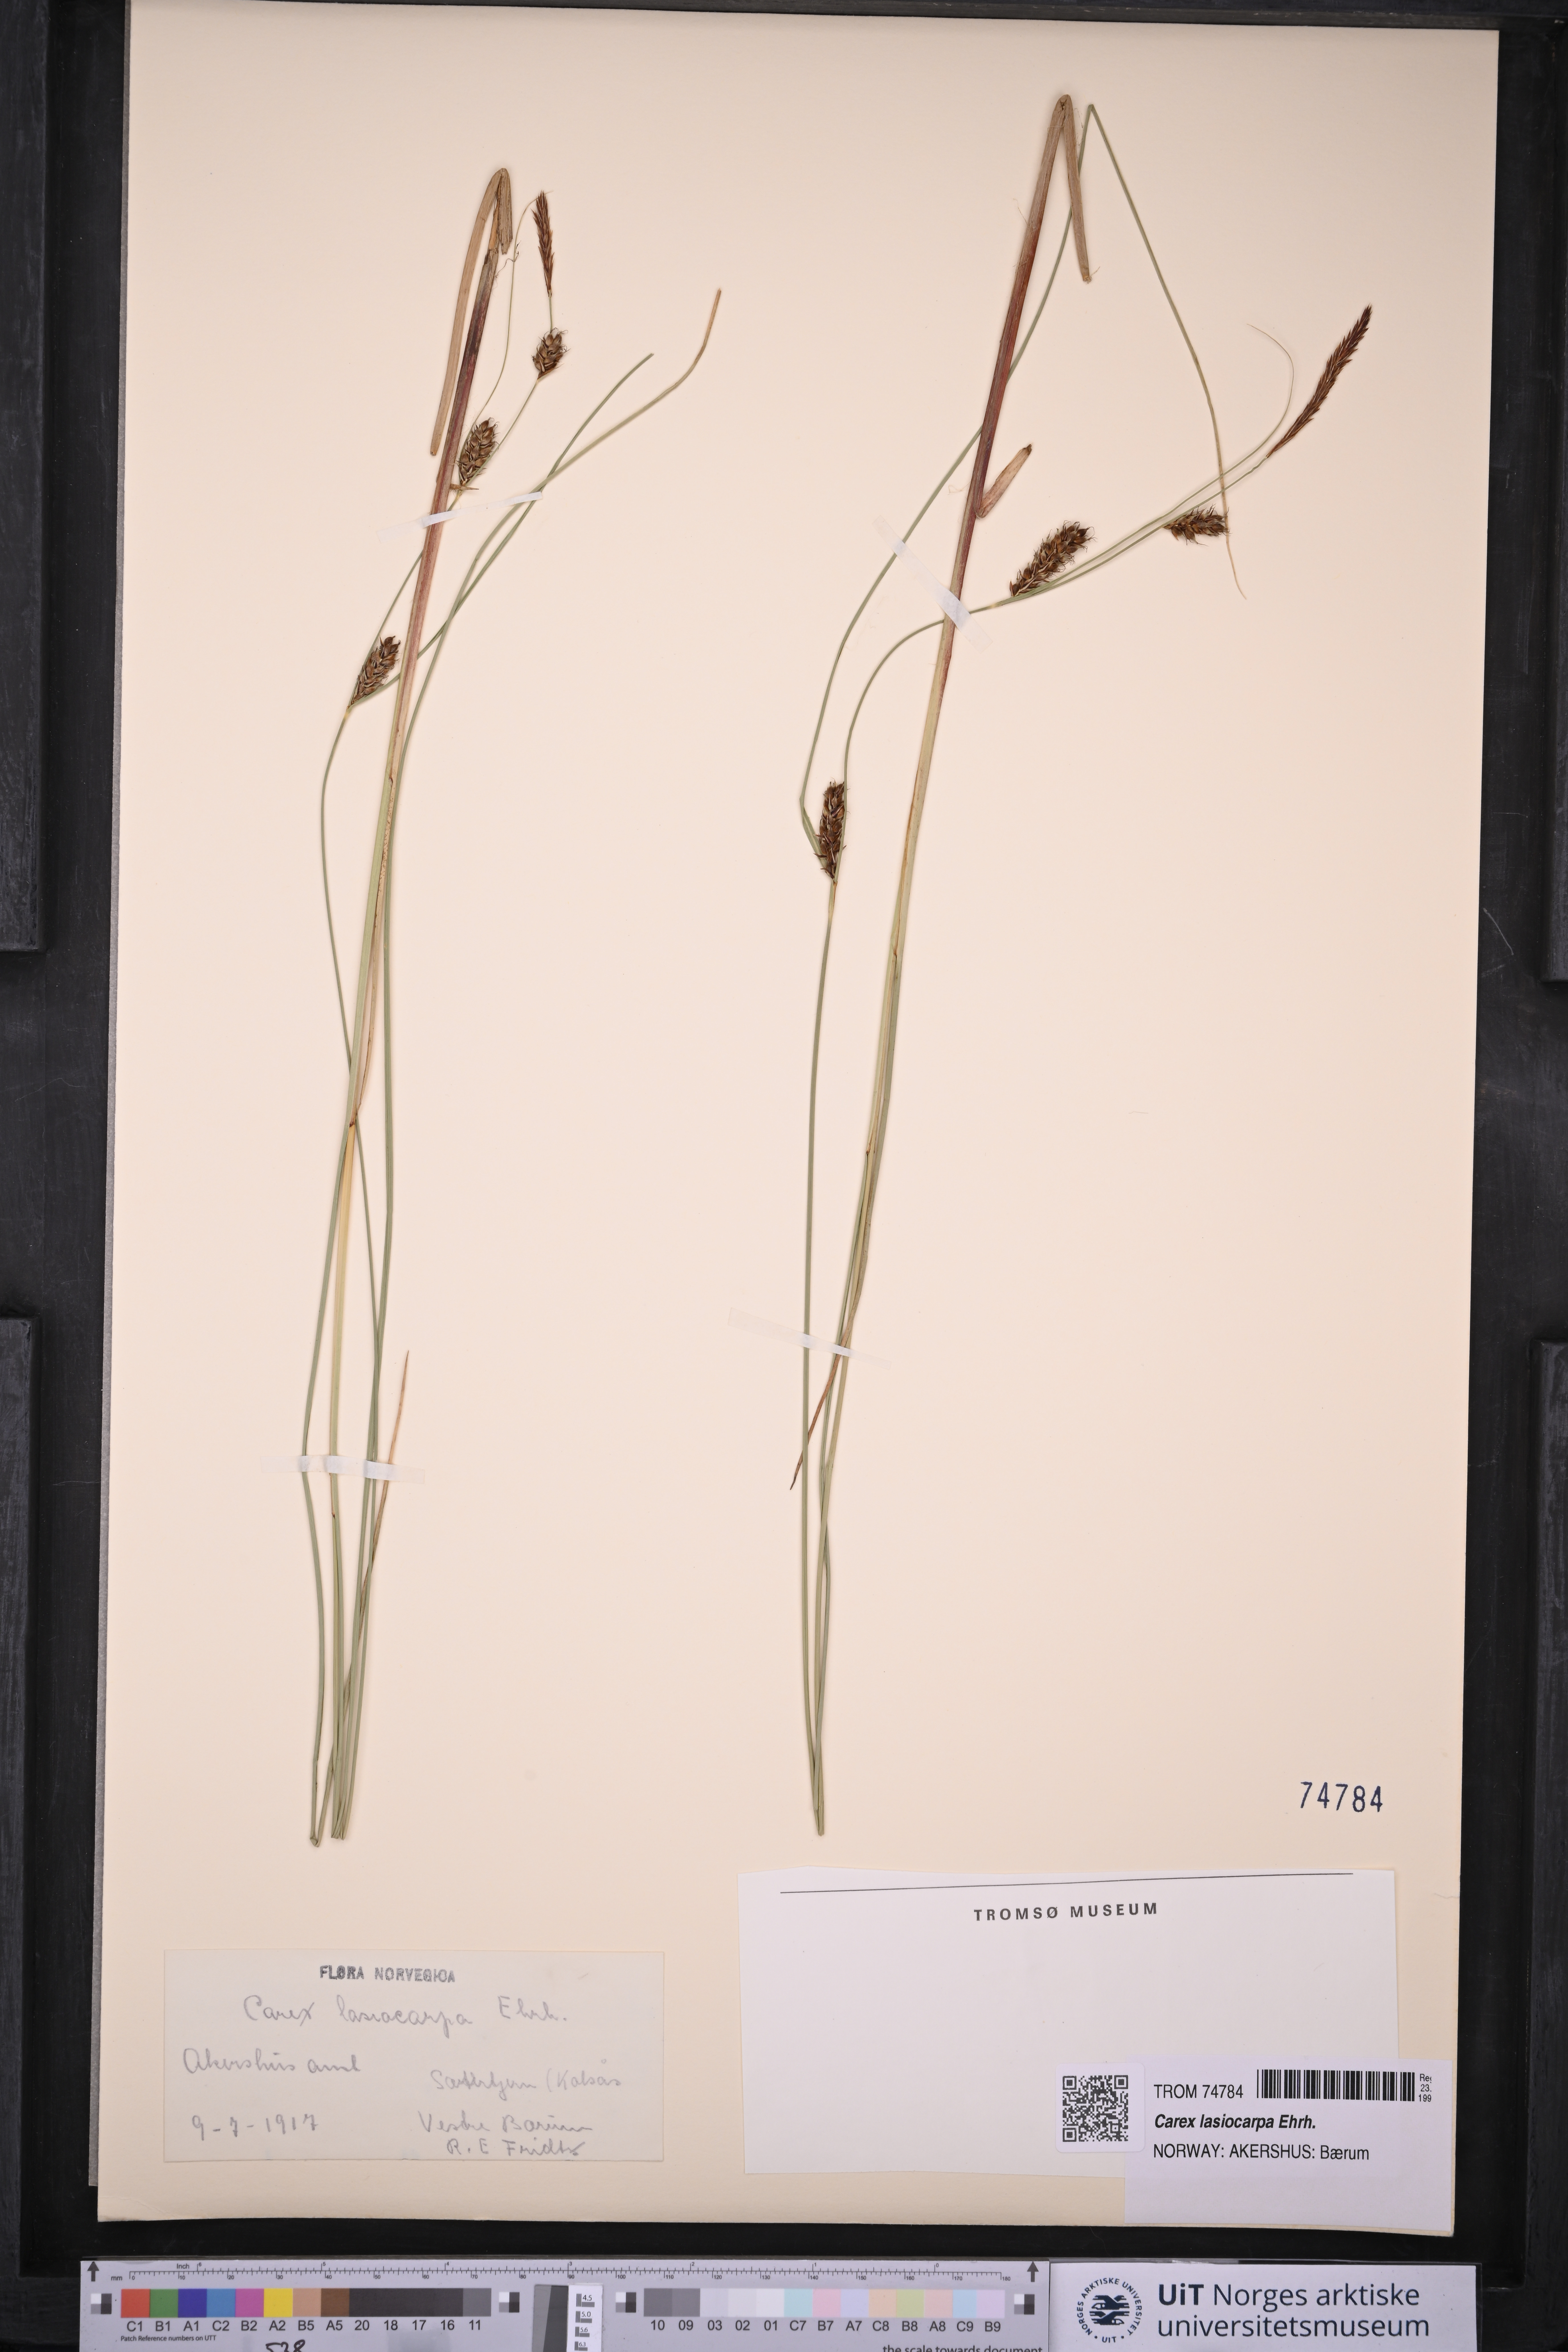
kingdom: Plantae
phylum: Tracheophyta
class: Liliopsida
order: Poales
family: Cyperaceae
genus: Carex
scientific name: Carex lasiocarpa
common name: Slender sedge
